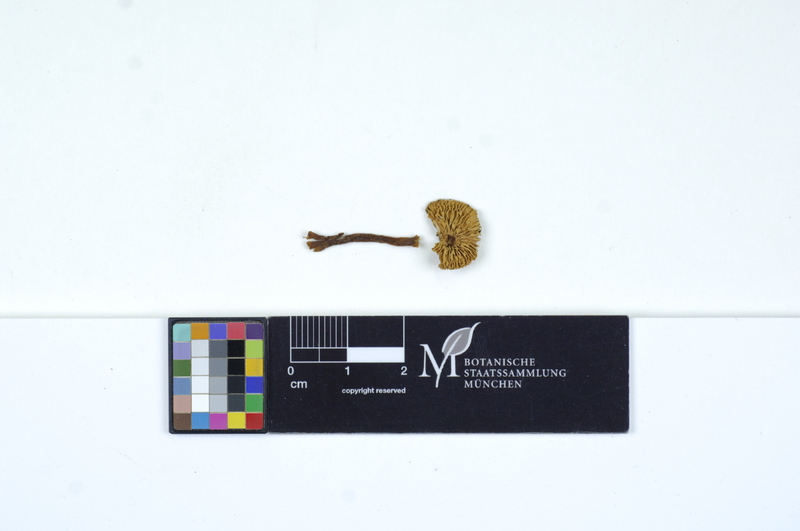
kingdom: Fungi
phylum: Basidiomycota
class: Agaricomycetes
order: Agaricales
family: Agaricaceae
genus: Lepiota
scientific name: Lepiota grangei
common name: Green dapperling
